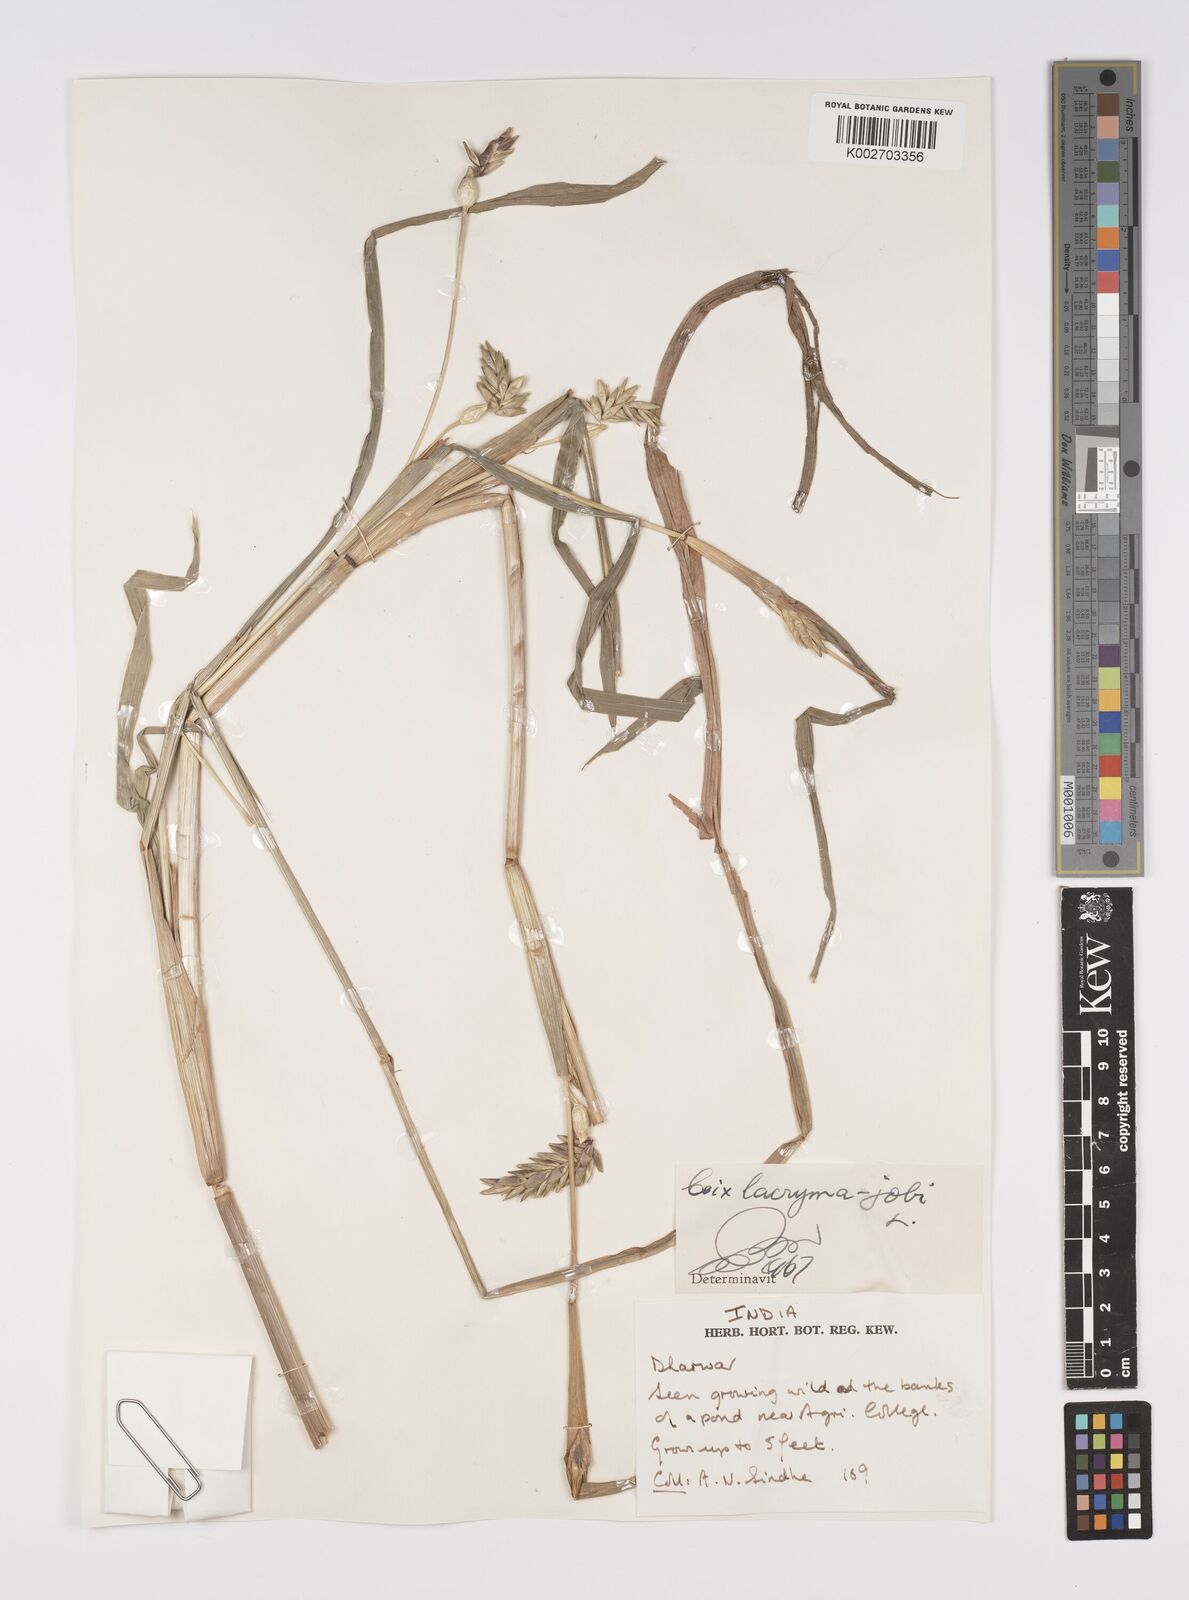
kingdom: Plantae
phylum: Tracheophyta
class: Liliopsida
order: Poales
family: Poaceae
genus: Coix
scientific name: Coix lacryma-jobi
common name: Job's tears
